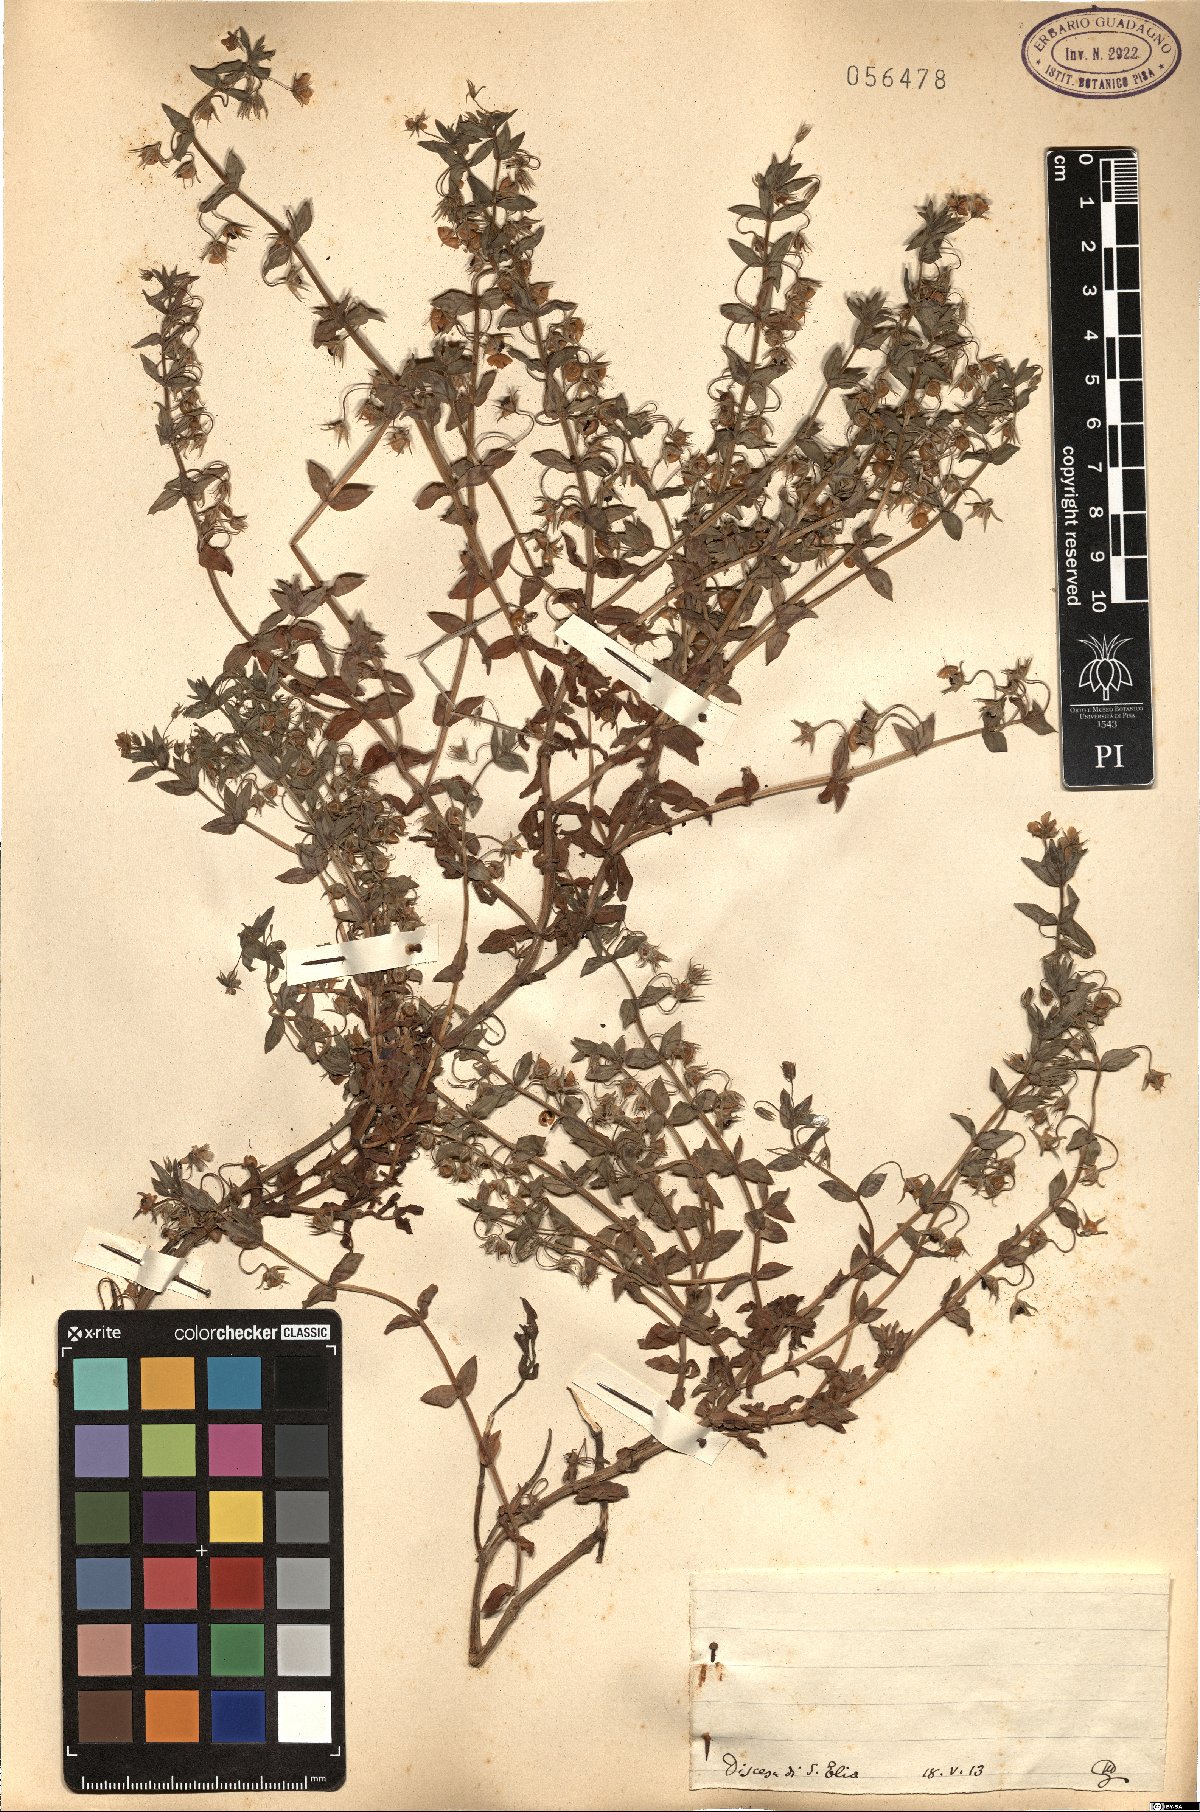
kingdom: Plantae
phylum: Tracheophyta
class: Magnoliopsida
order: Ericales
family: Primulaceae
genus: Lysimachia
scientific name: Lysimachia Anagallis spec
